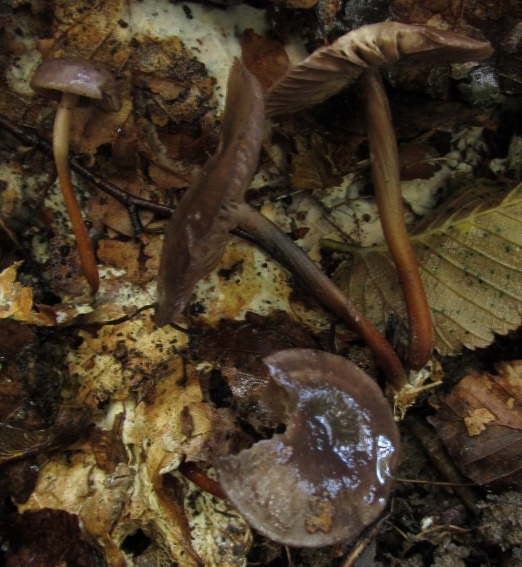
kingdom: Fungi
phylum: Basidiomycota
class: Agaricomycetes
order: Agaricales
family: Omphalotaceae
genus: Gymnopus
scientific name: Gymnopus
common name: fladhat
